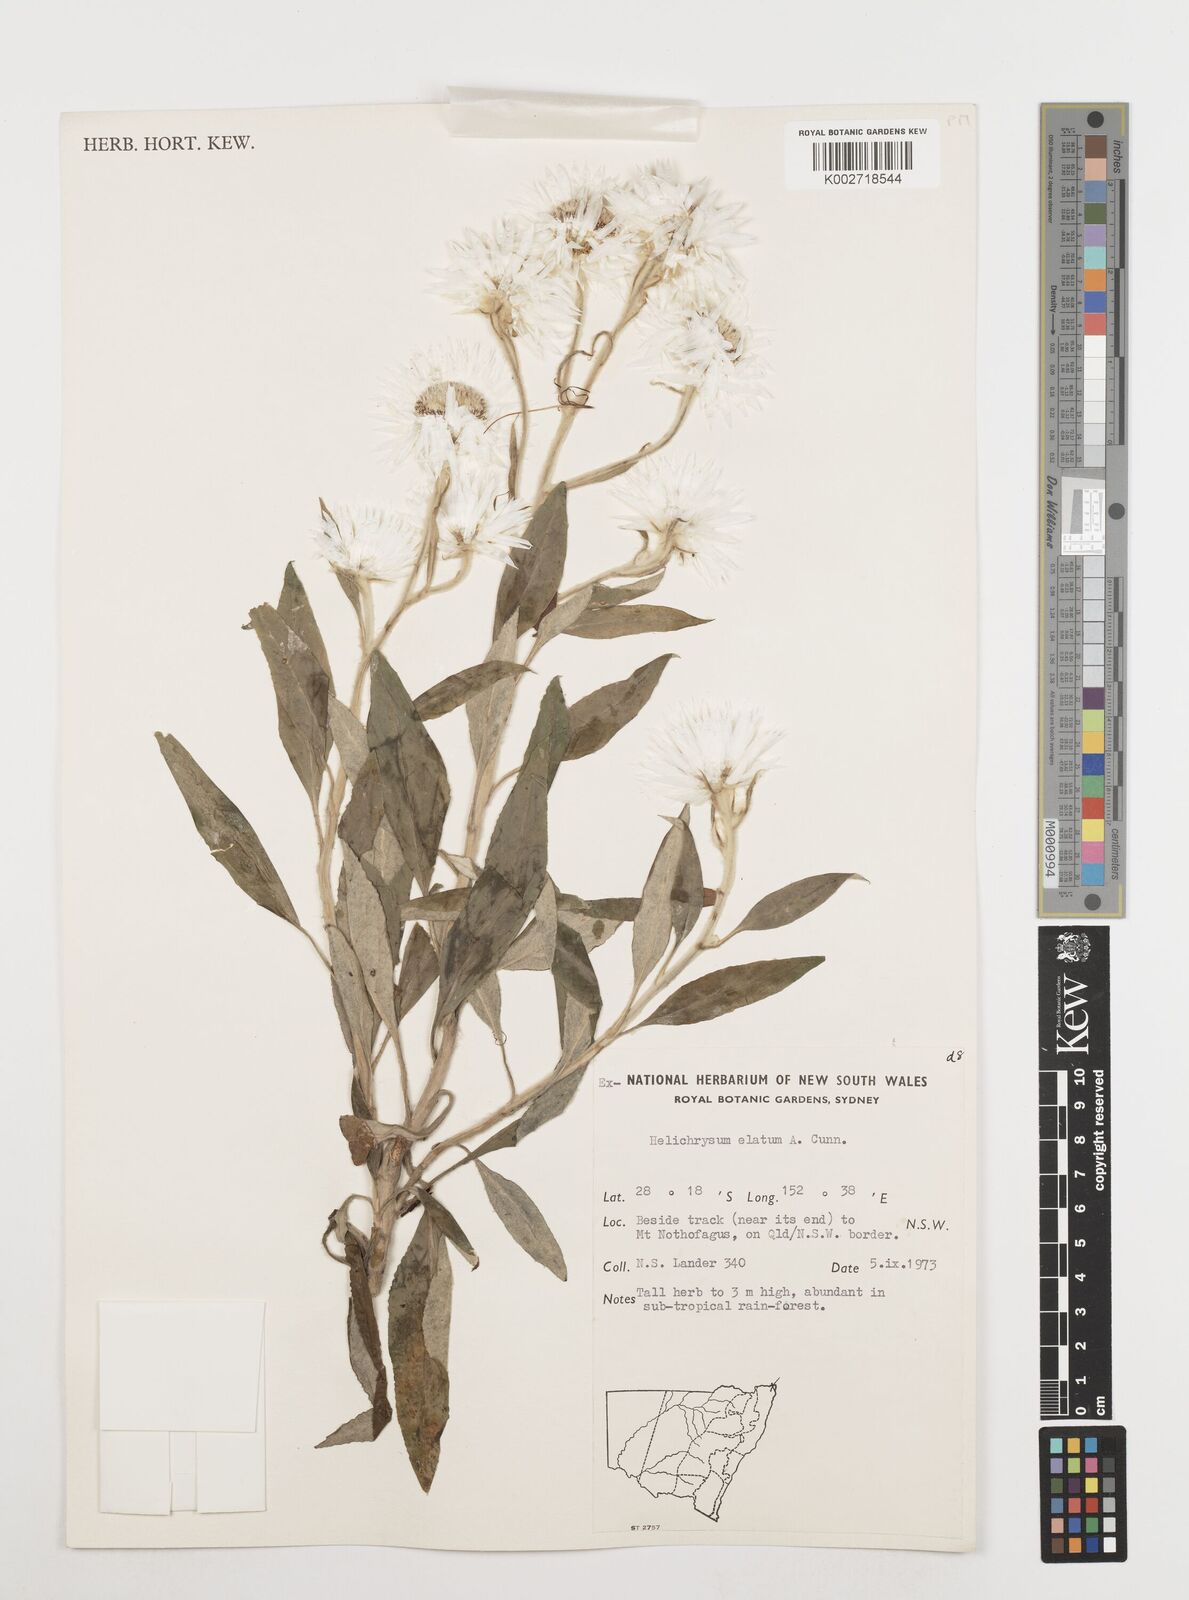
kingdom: Plantae
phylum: Tracheophyta
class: Magnoliopsida
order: Asterales
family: Asteraceae
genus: Leucozoma
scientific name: Leucozoma elatum
